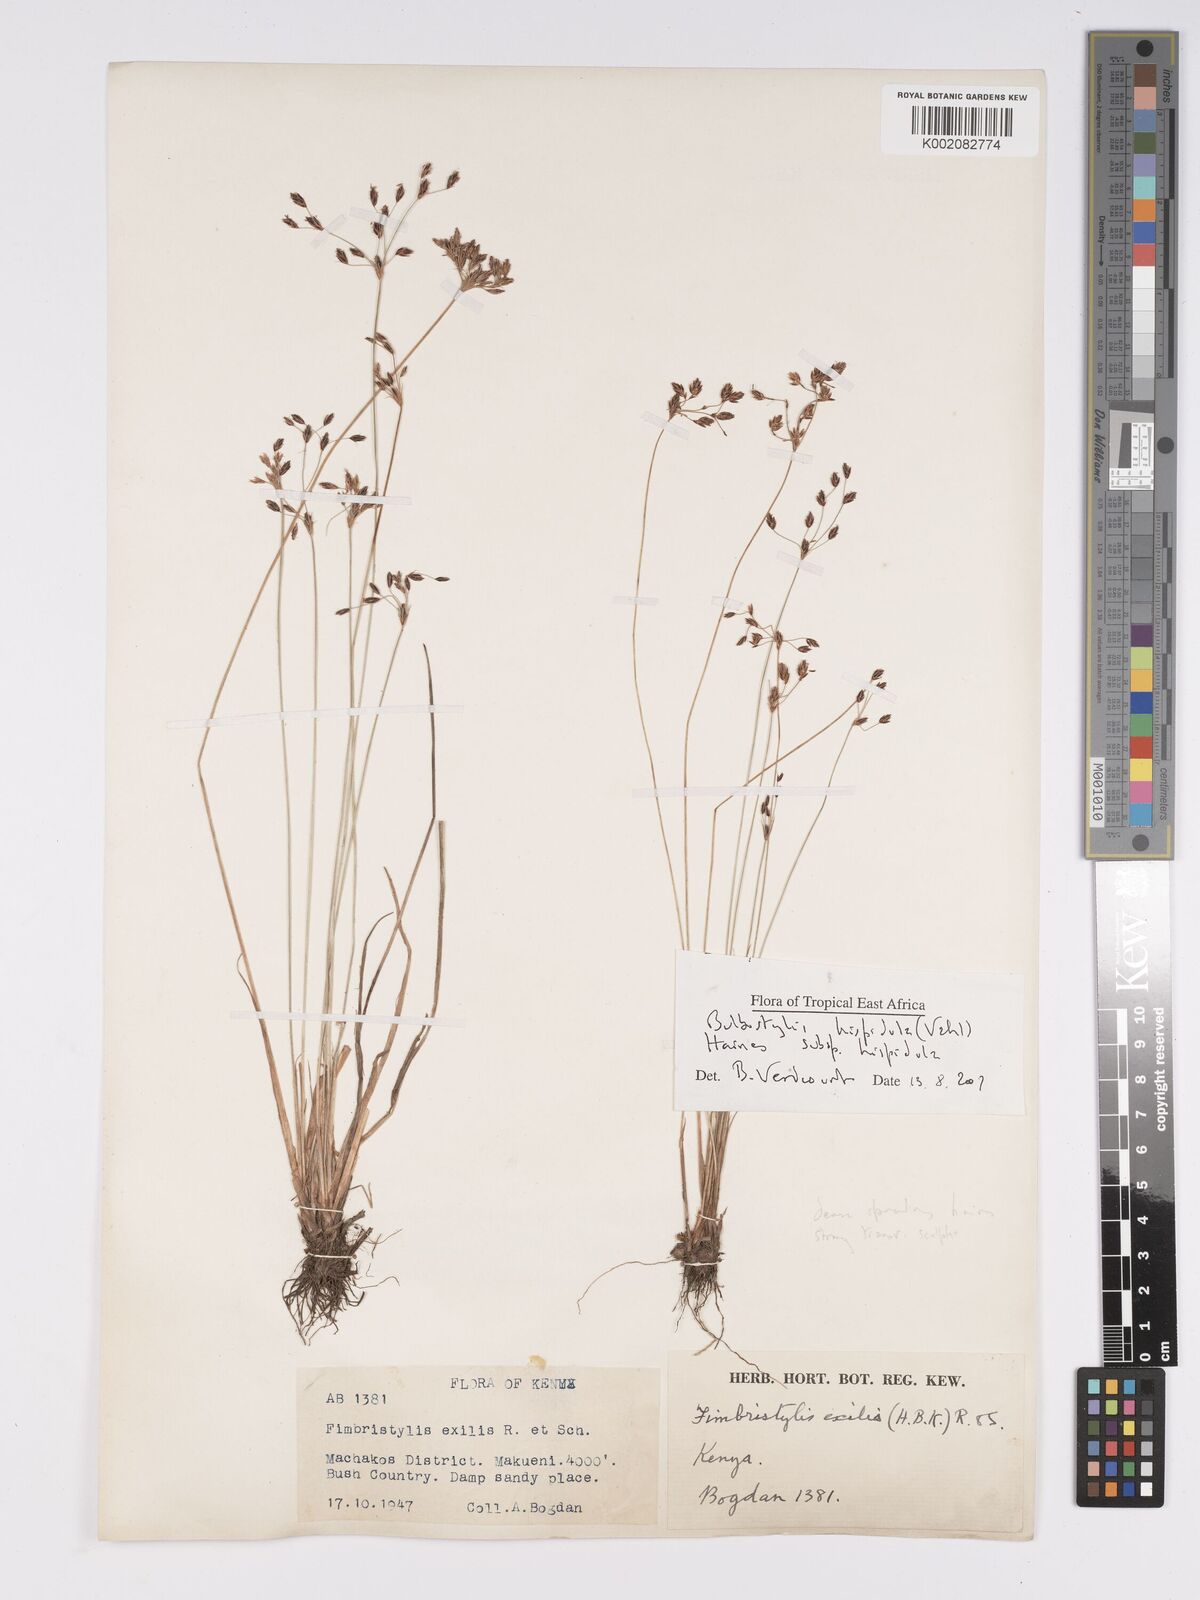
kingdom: Plantae
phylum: Tracheophyta
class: Liliopsida
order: Poales
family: Cyperaceae
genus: Bulbostylis
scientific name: Bulbostylis hispidula
